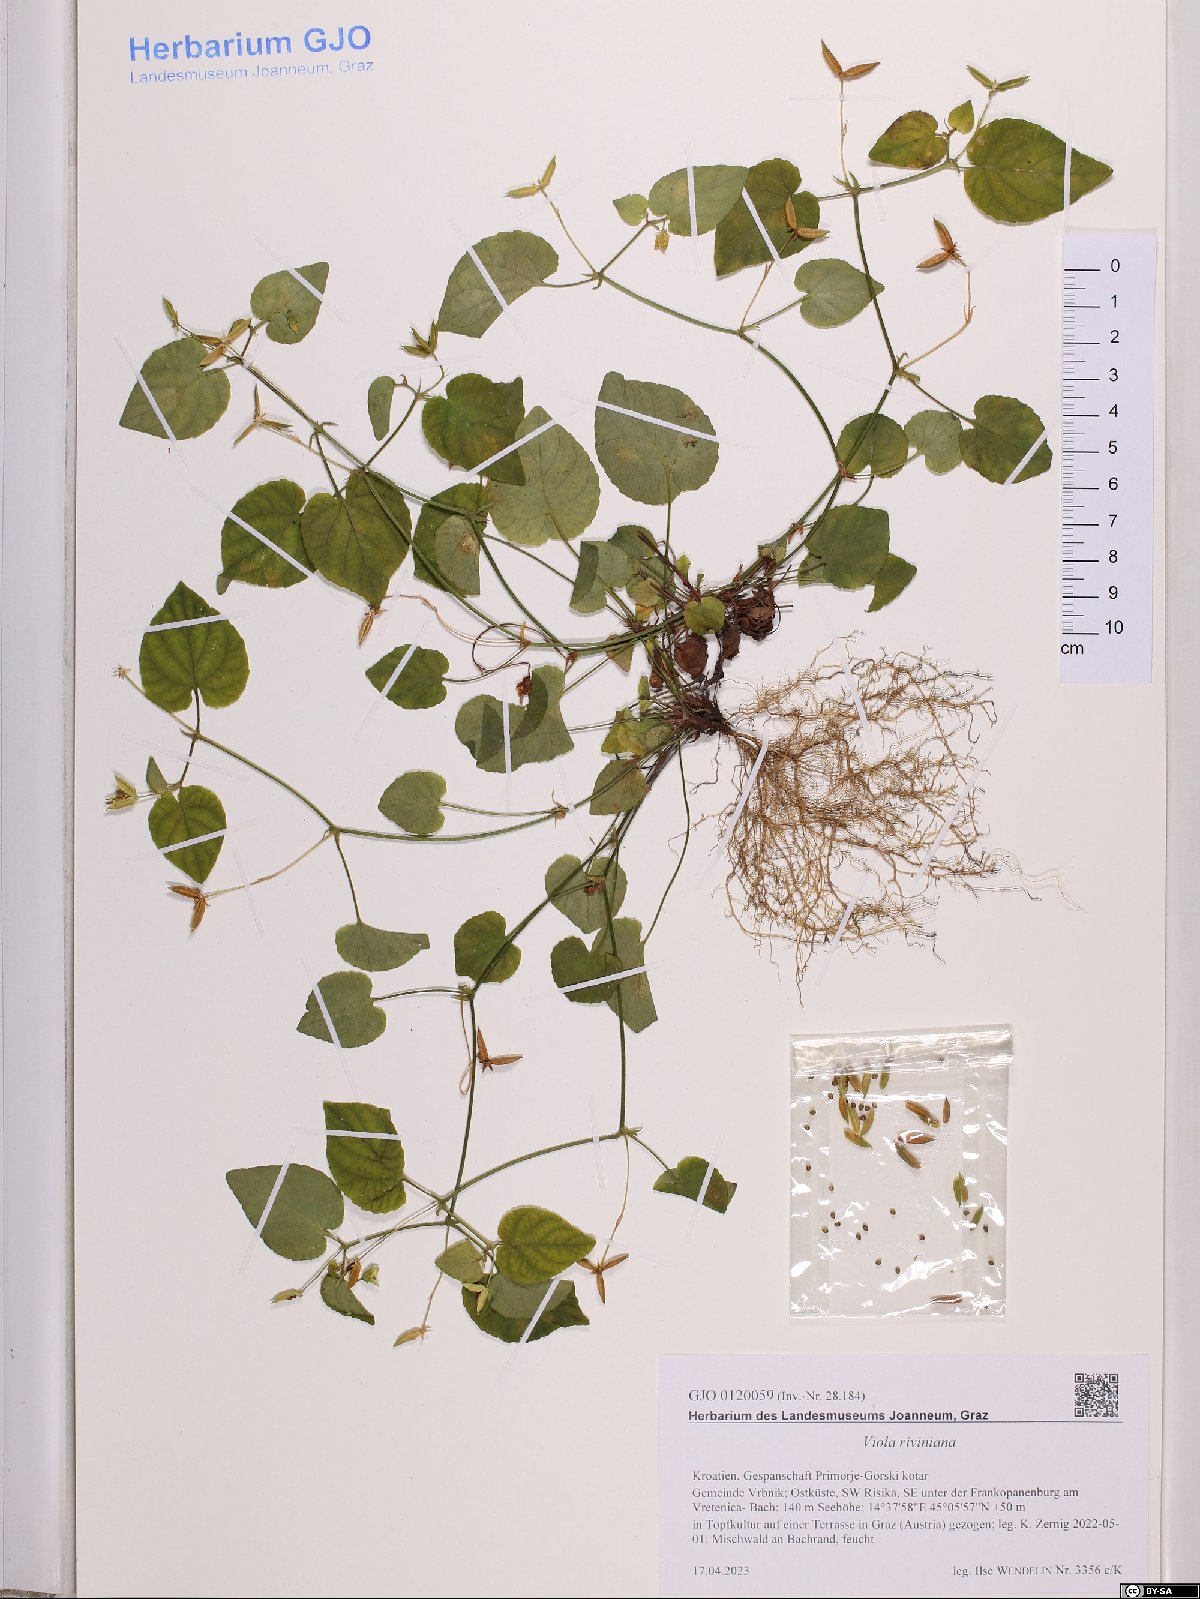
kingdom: Plantae
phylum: Tracheophyta
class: Magnoliopsida
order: Malpighiales
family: Violaceae
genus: Viola
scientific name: Viola riviniana
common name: Common dog-violet
